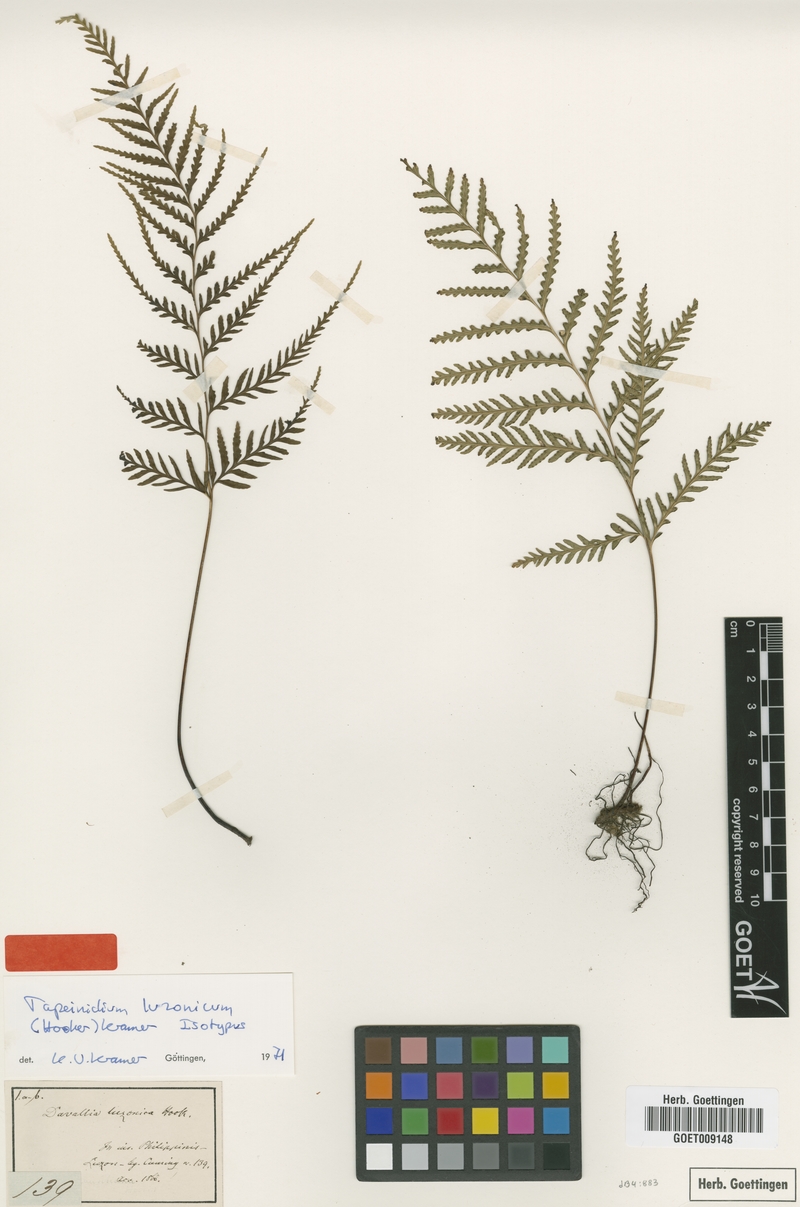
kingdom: Plantae
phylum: Tracheophyta
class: Polypodiopsida
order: Polypodiales
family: Lindsaeaceae
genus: Tapeinidium
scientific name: Tapeinidium luzonicum
